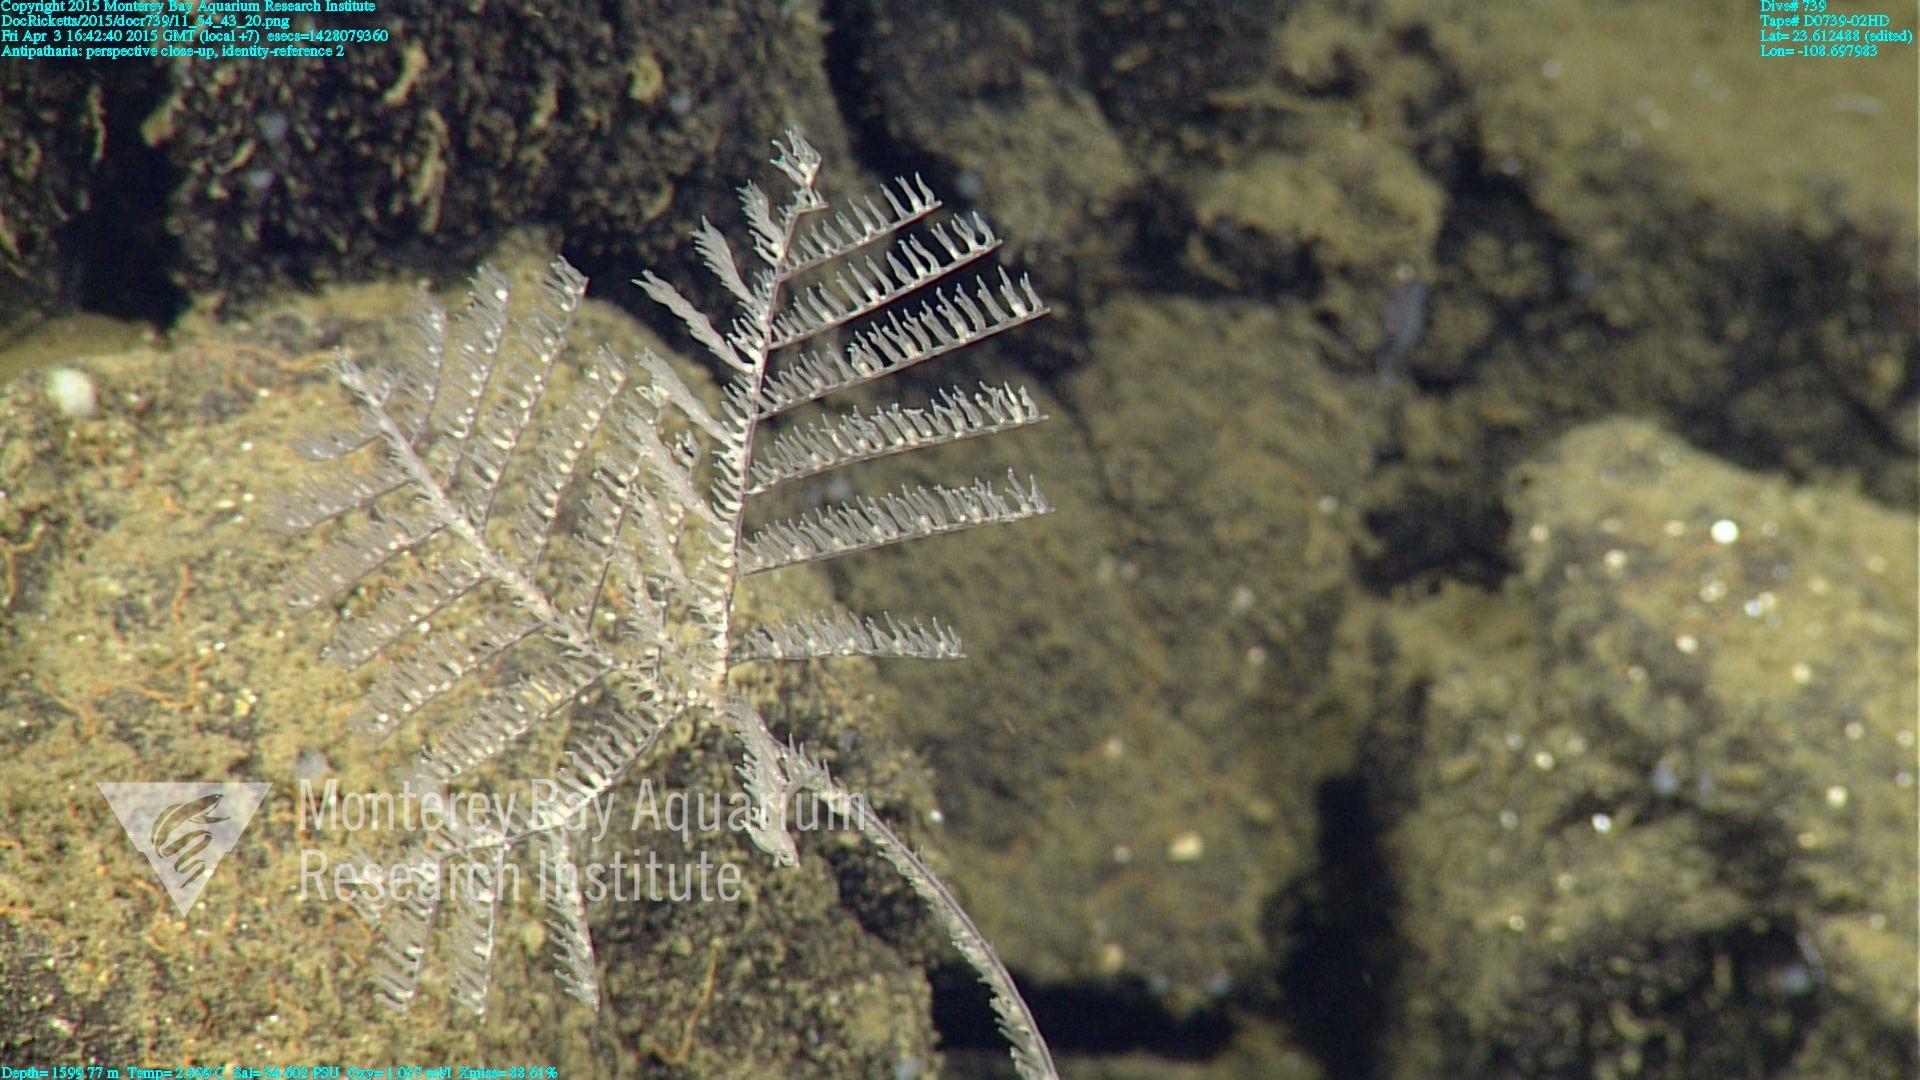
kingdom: Animalia
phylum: Cnidaria
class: Anthozoa
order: Antipatharia
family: Schizopathidae
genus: Umbellapathes
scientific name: Umbellapathes
